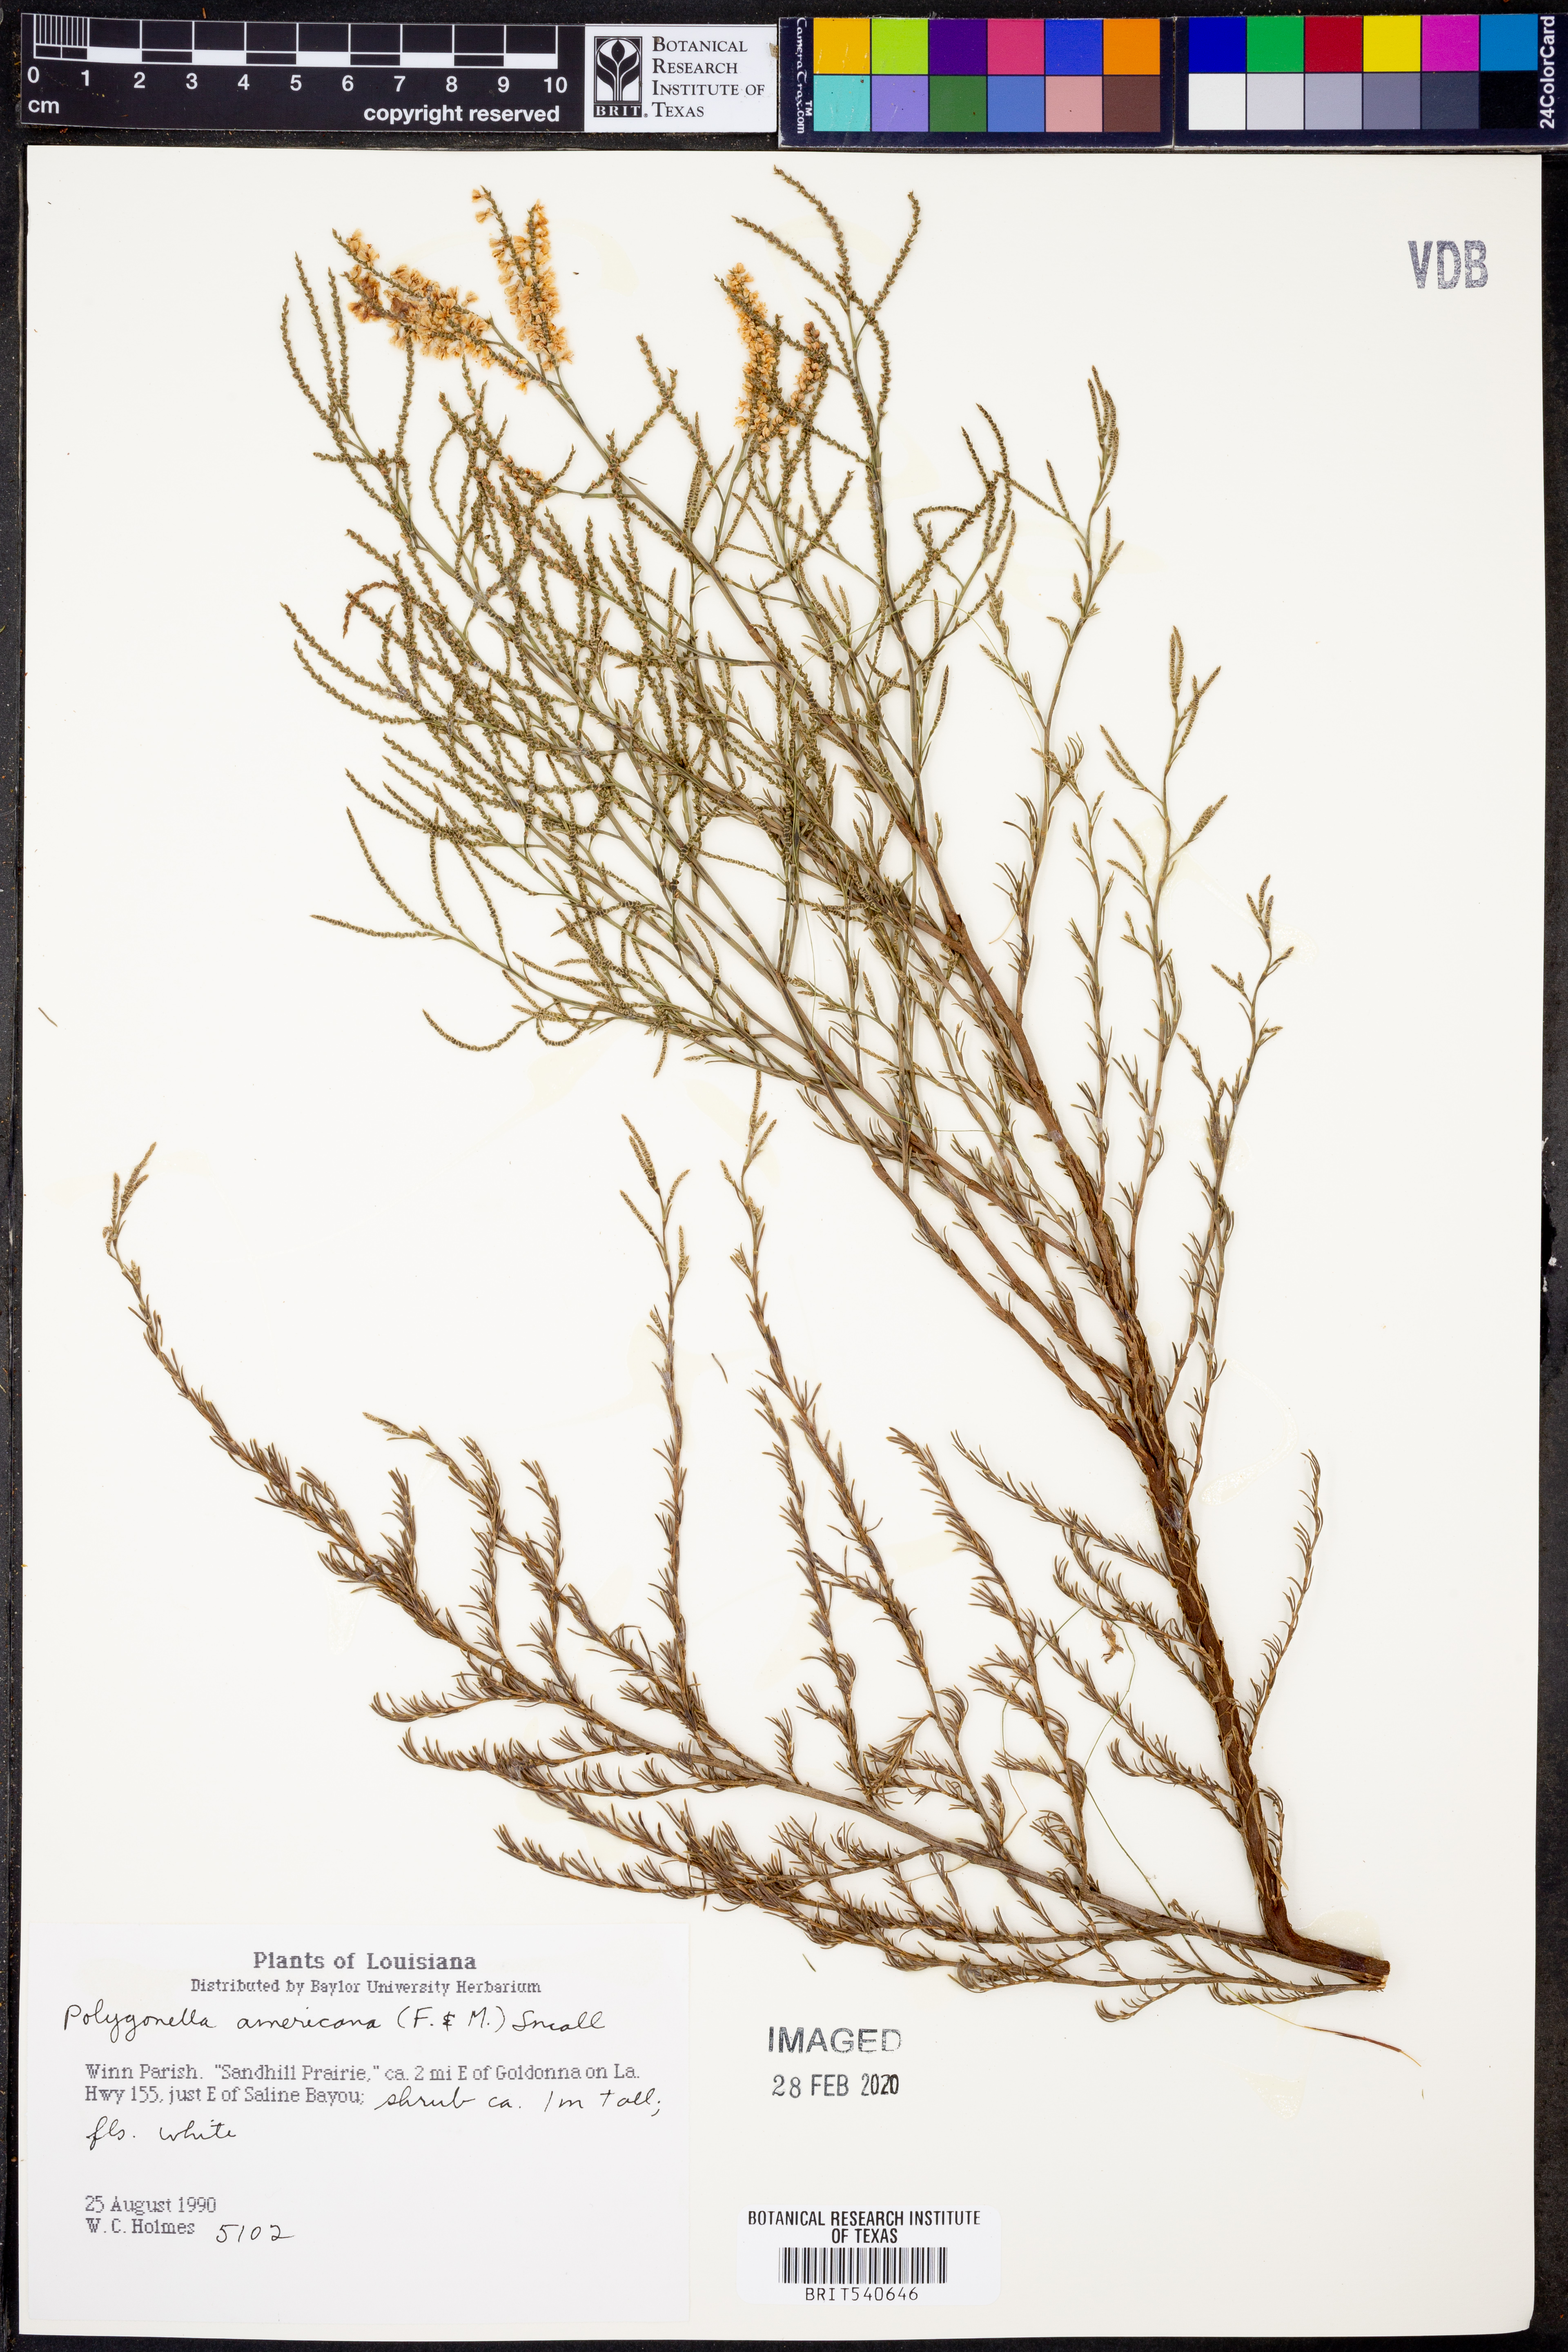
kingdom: Plantae
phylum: Tracheophyta
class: Magnoliopsida
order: Caryophyllales
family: Polygonaceae
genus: Polygonella
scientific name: Polygonella americana
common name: Southern jointweed
